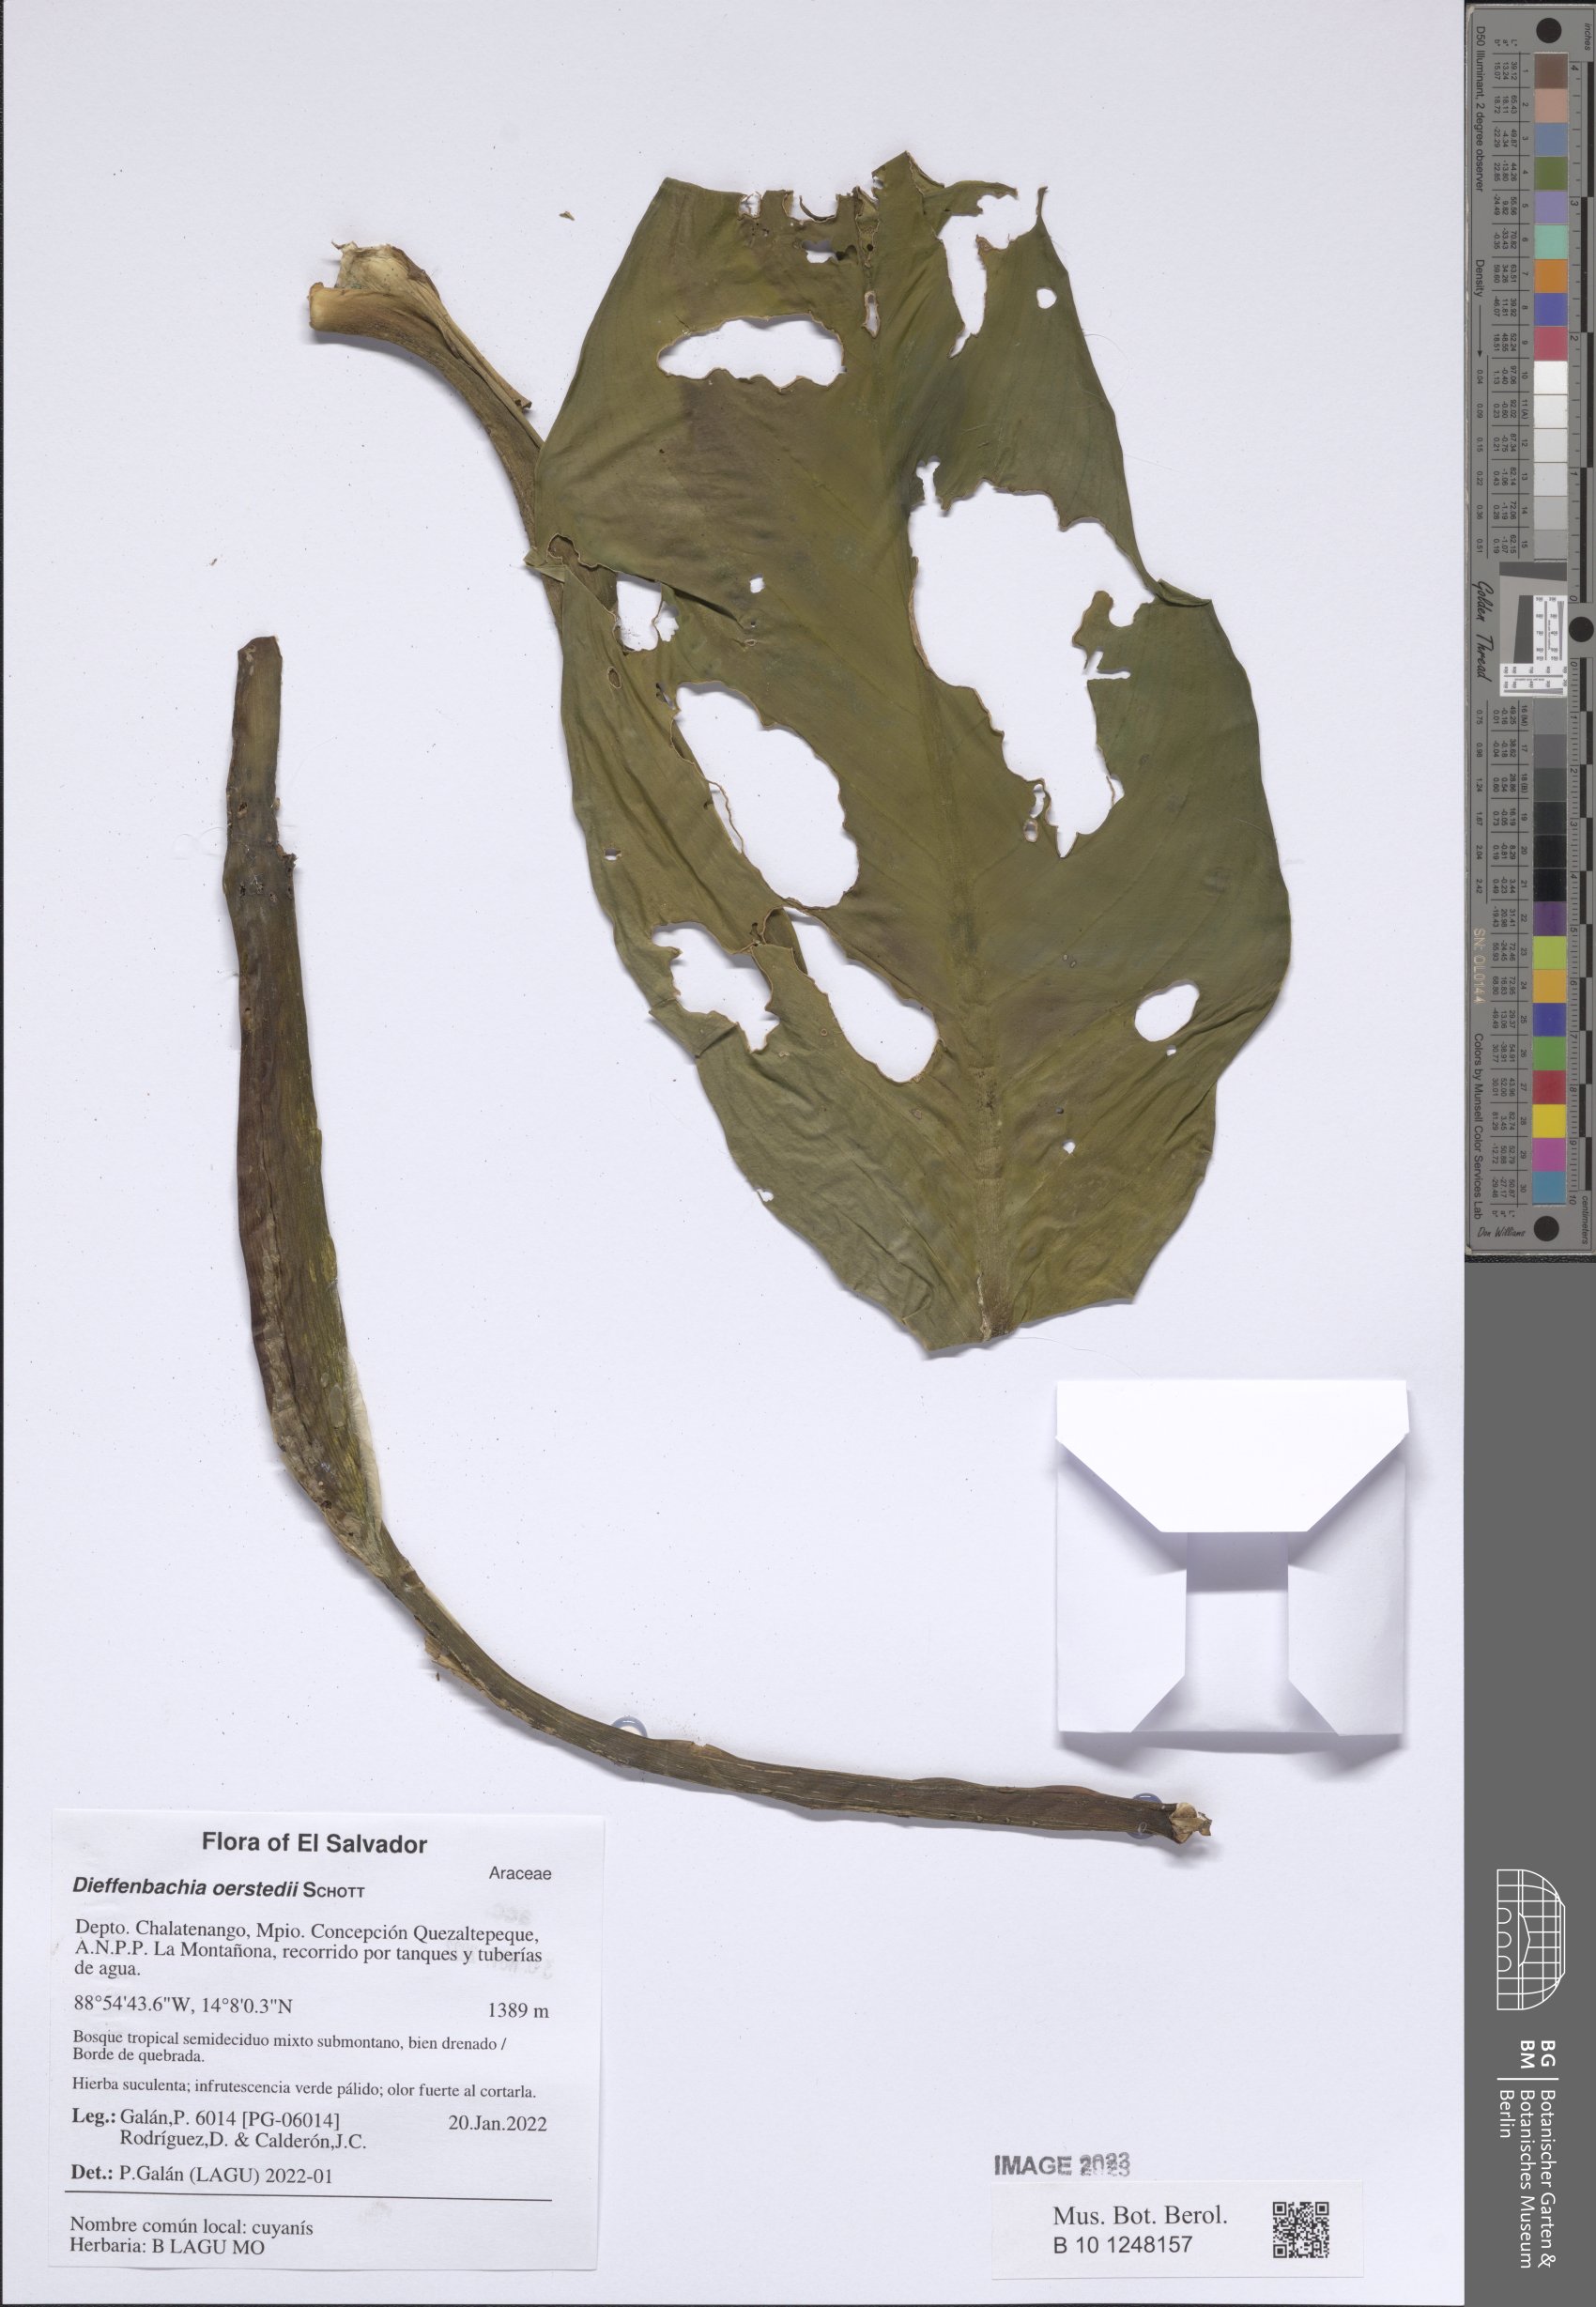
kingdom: Plantae
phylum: Tracheophyta
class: Liliopsida
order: Alismatales
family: Araceae
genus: Dieffenbachia
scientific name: Dieffenbachia oerstedii
